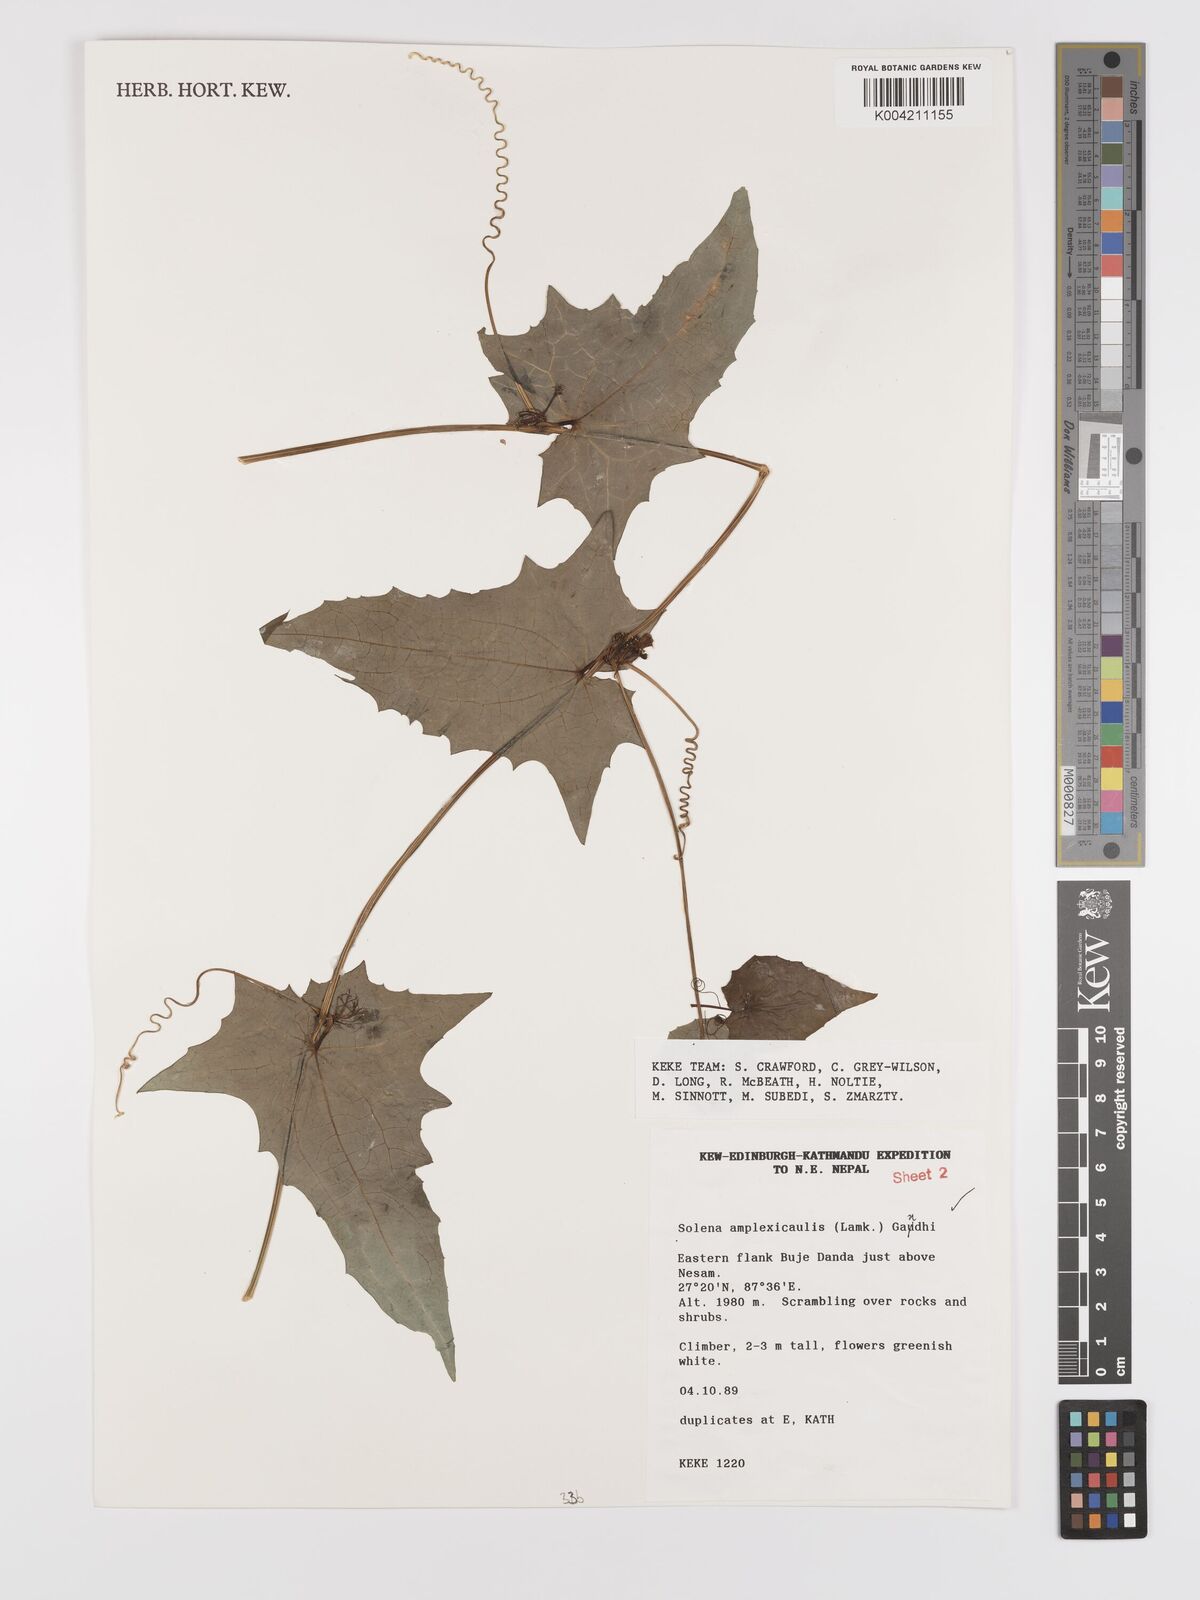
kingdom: Plantae
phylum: Tracheophyta
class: Magnoliopsida
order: Cucurbitales
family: Cucurbitaceae
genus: Solena
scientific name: Solena
